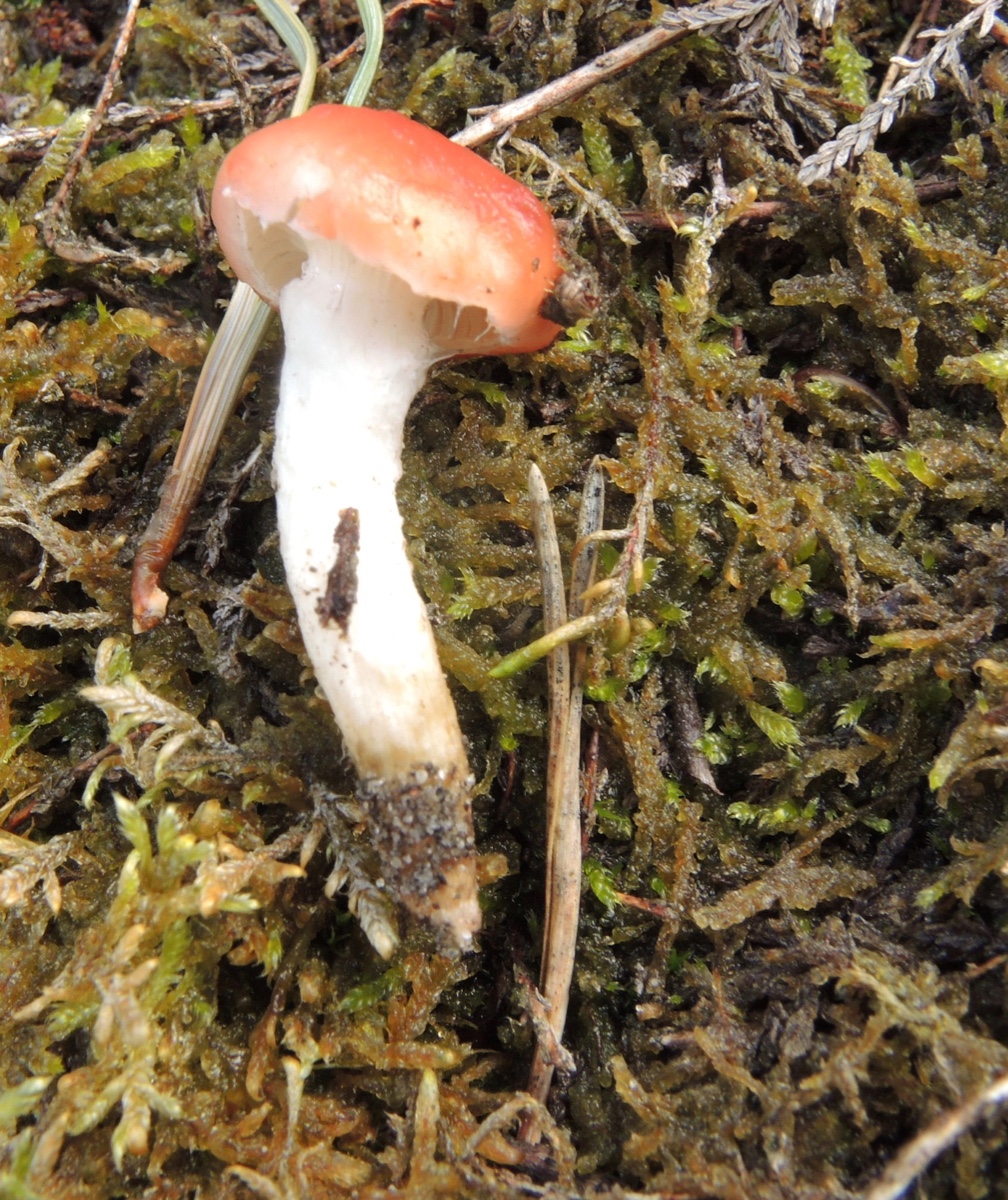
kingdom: Fungi
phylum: Basidiomycota
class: Agaricomycetes
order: Boletales
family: Gomphidiaceae
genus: Gomphidius
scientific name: Gomphidius roseus
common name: rosenrød slimslør
